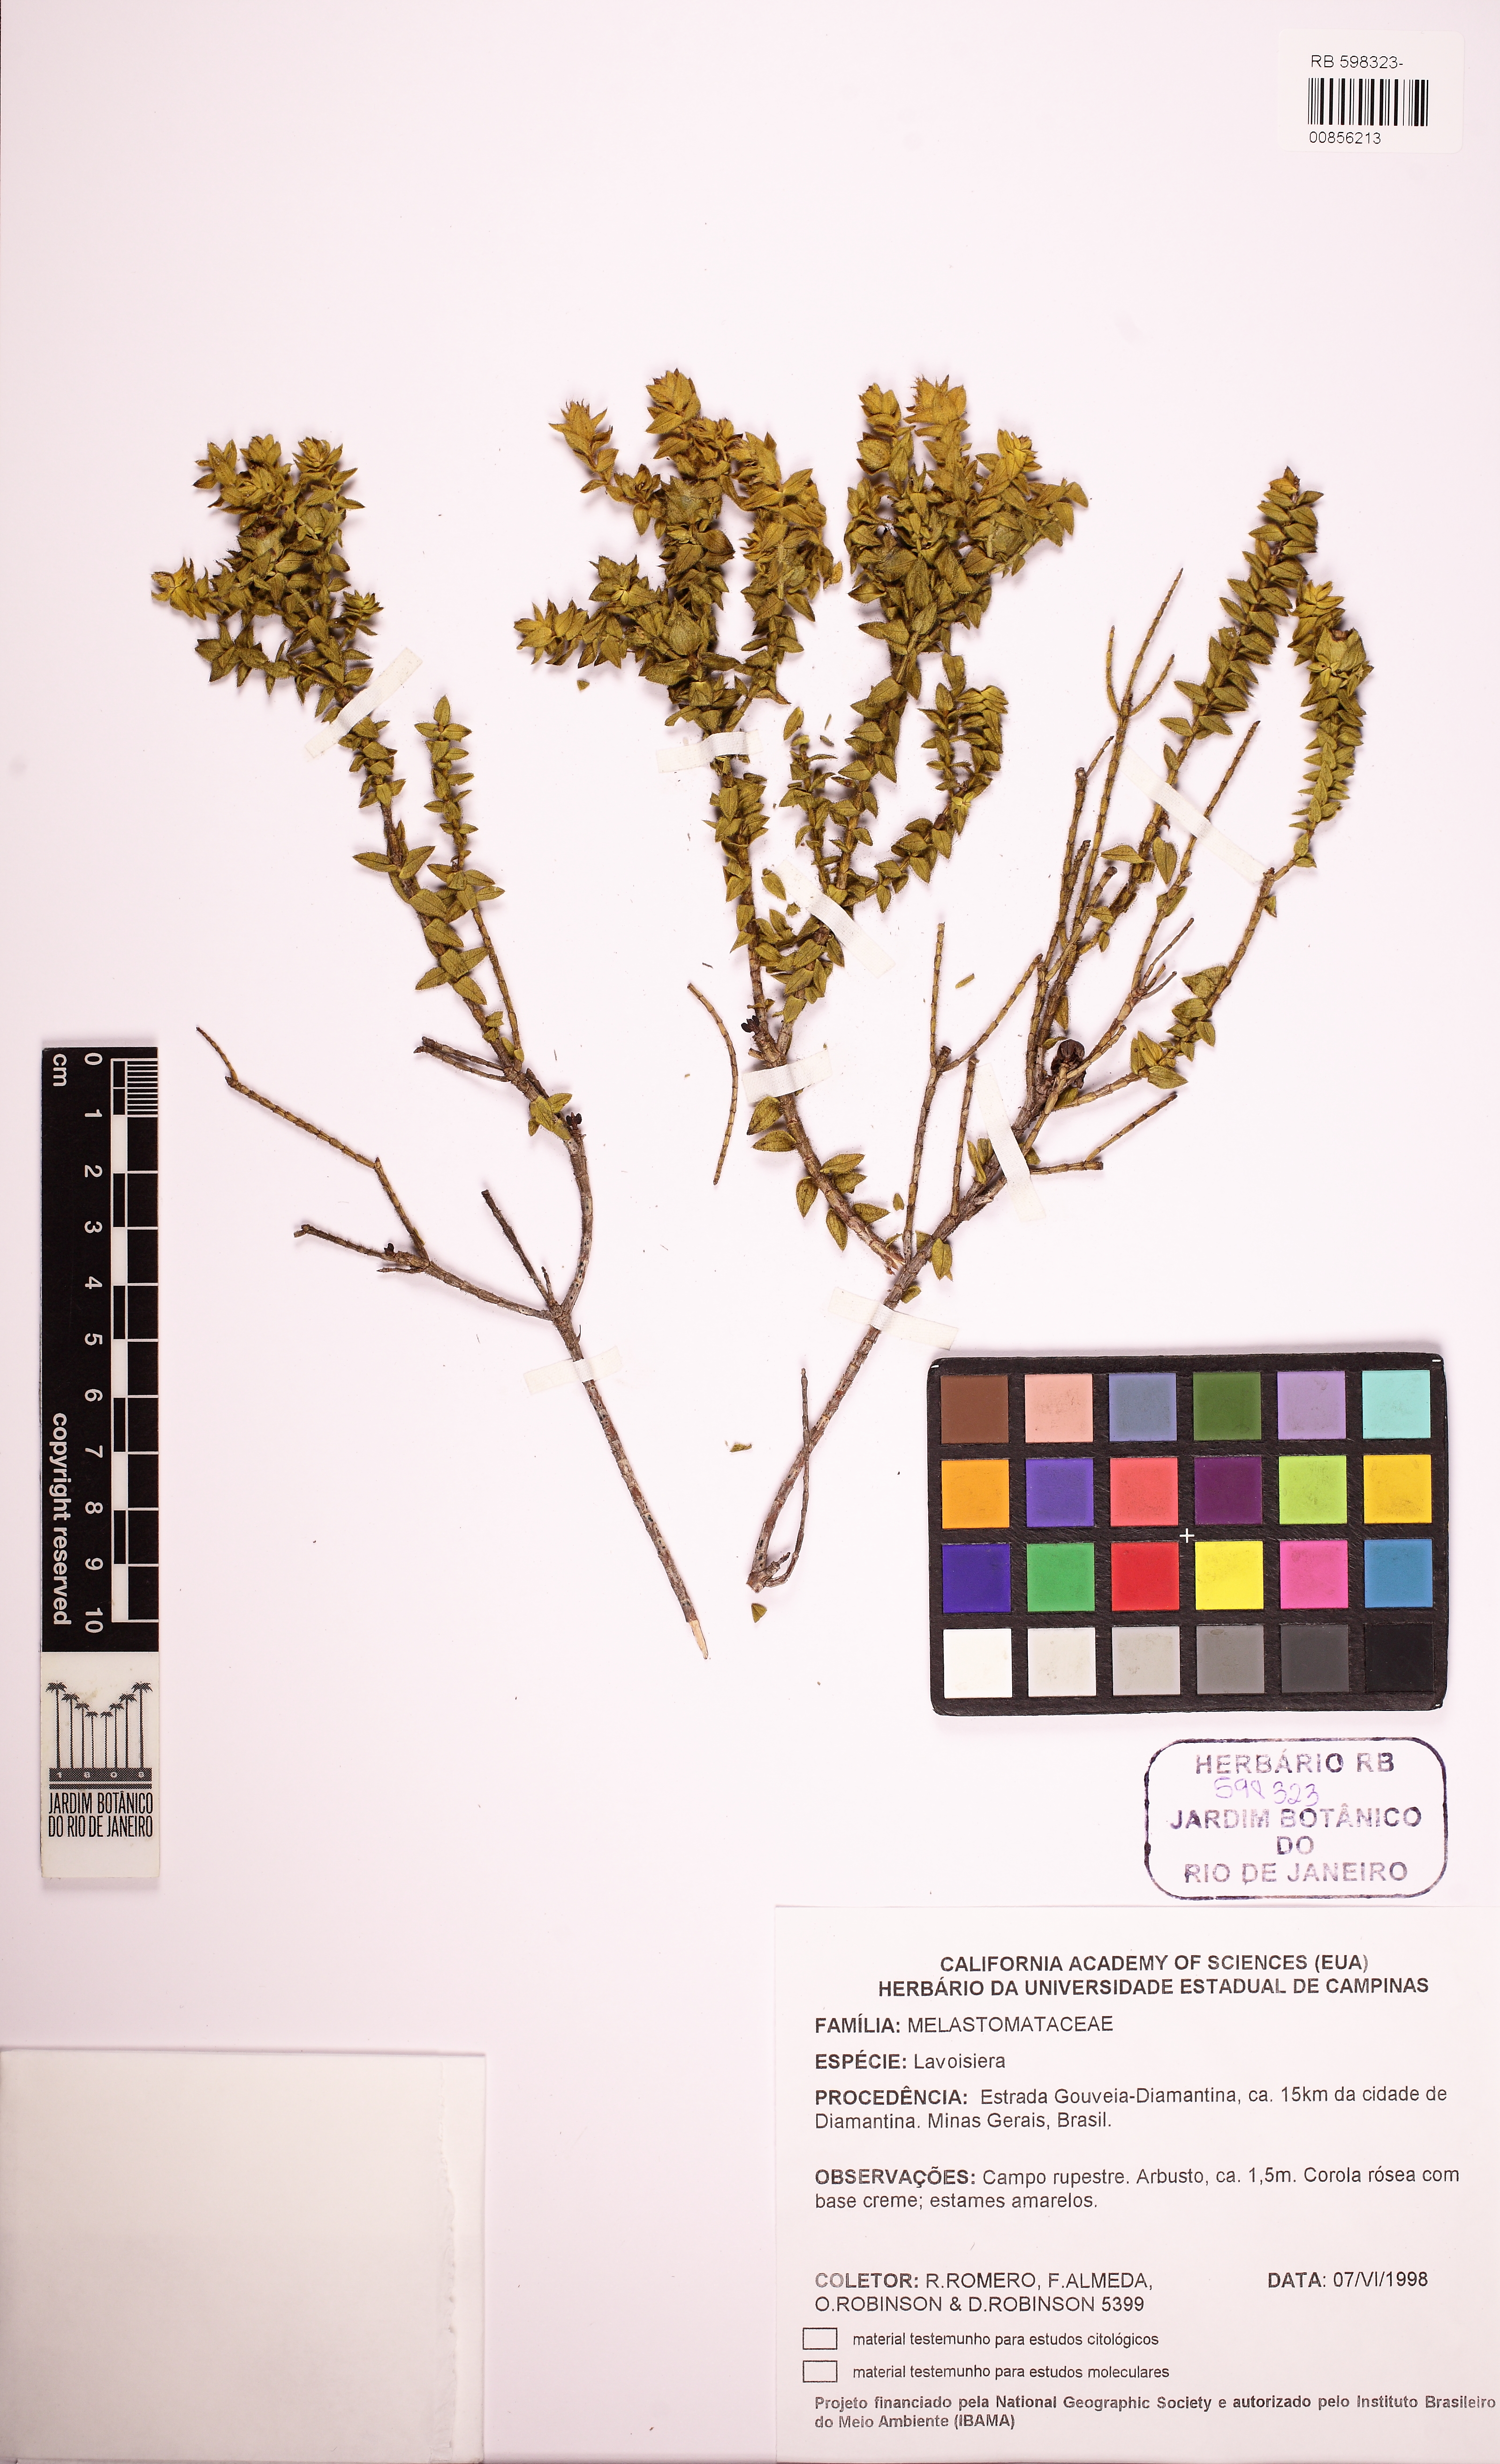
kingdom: Plantae
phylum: Tracheophyta
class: Magnoliopsida
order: Myrtales
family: Melastomataceae
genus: Microlicia
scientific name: Microlicia
